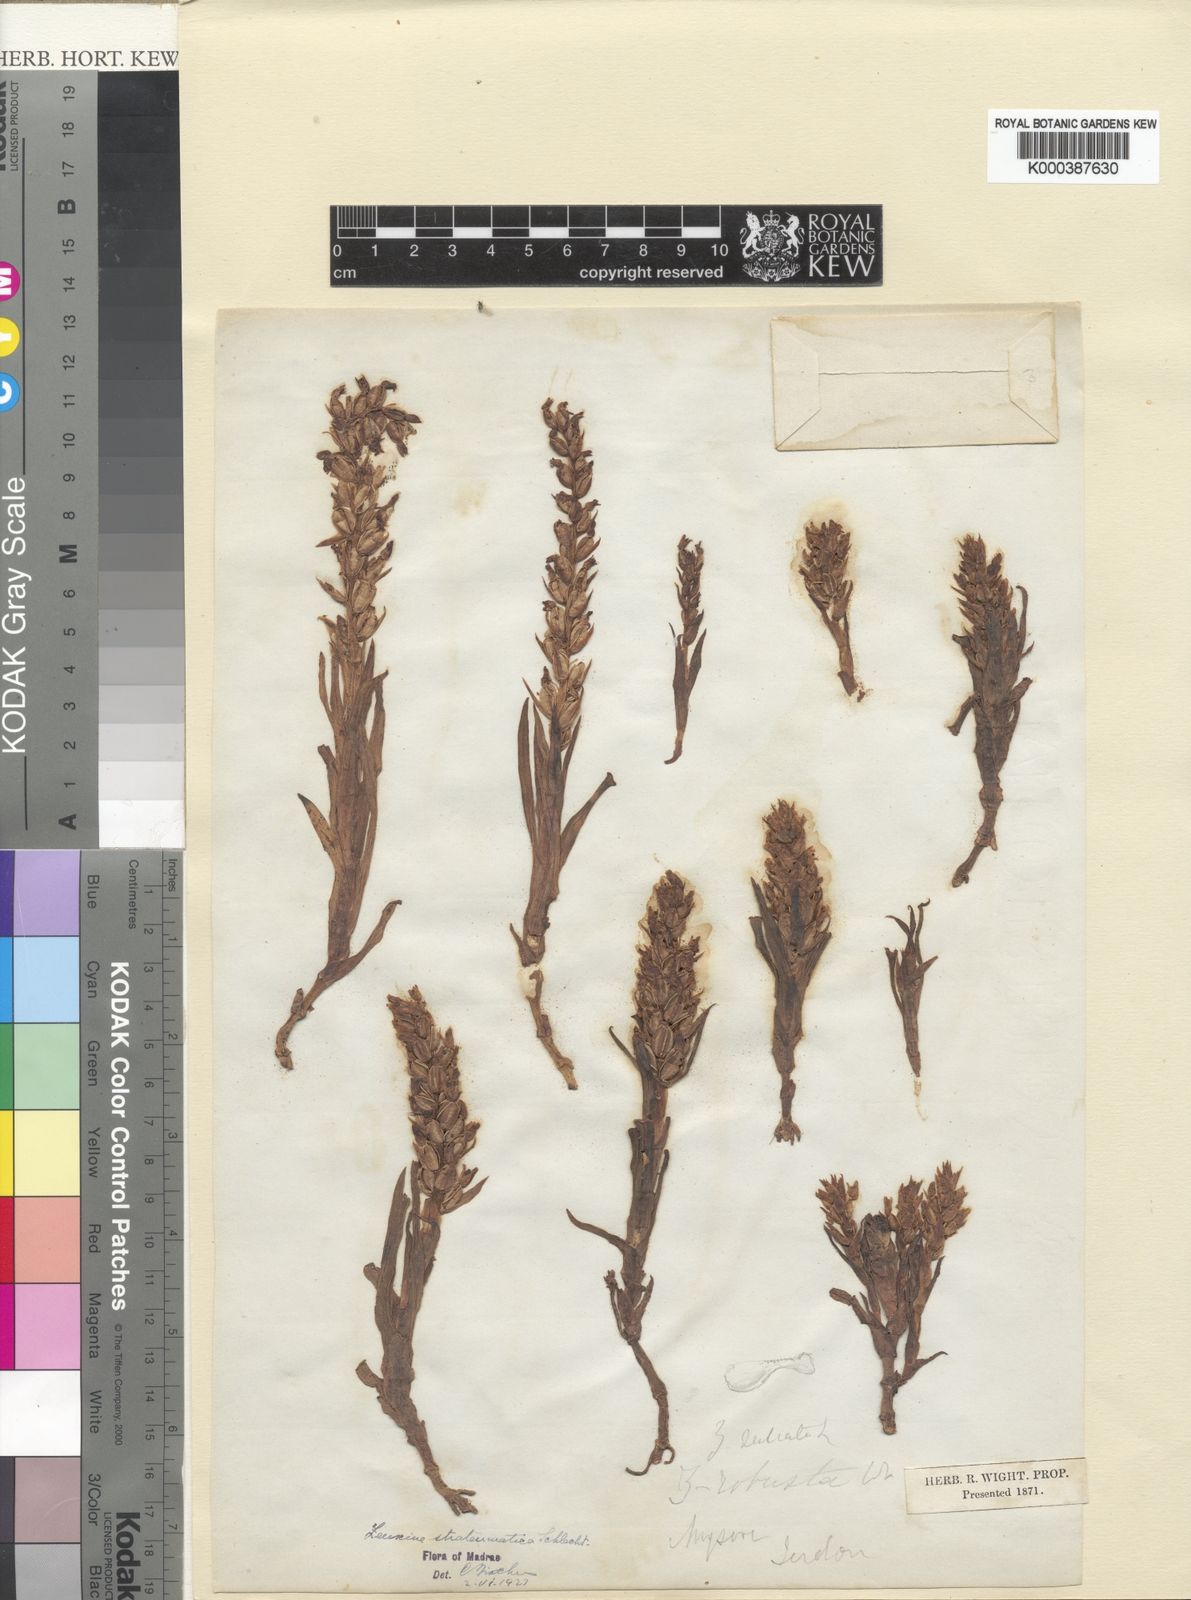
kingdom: Plantae
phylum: Tracheophyta
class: Liliopsida
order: Asparagales
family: Orchidaceae
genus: Zeuxine
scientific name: Zeuxine strateumatica
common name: Soldier's orchid
